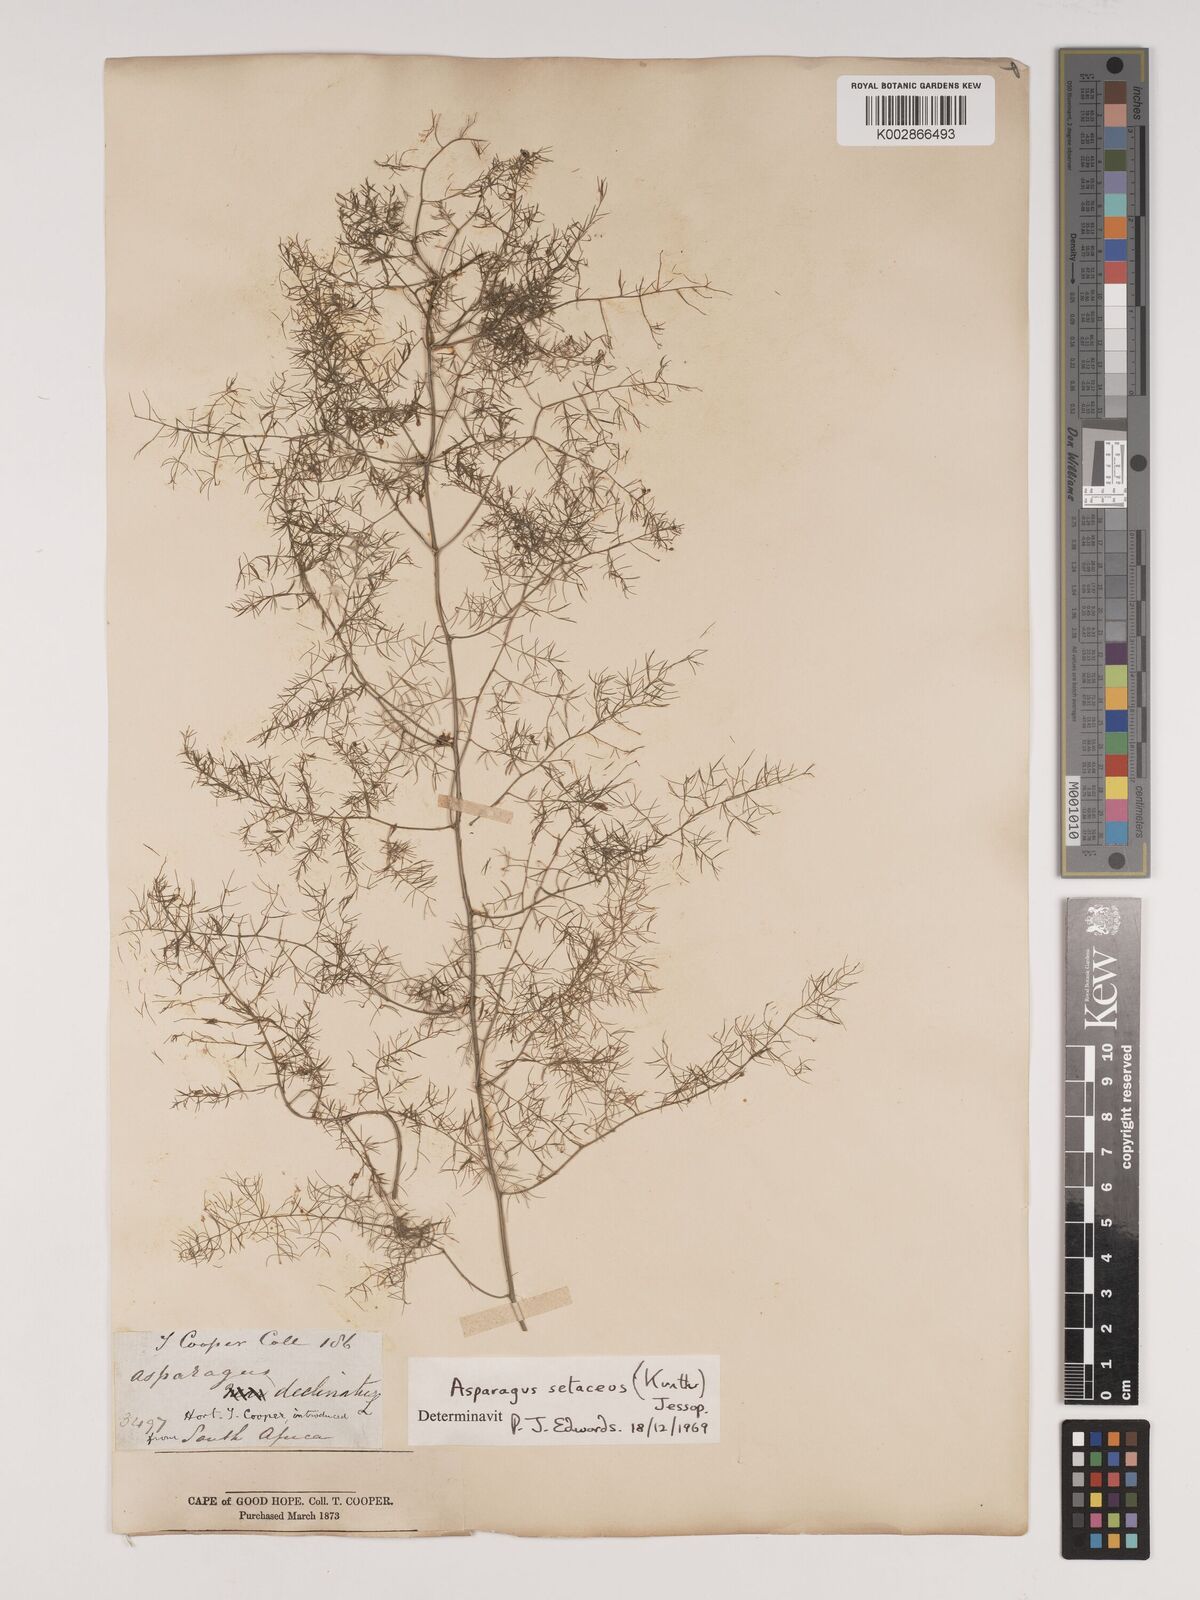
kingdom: Plantae
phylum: Tracheophyta
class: Liliopsida
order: Asparagales
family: Asparagaceae
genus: Asparagus
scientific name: Asparagus setaceus
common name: Common asparagus fern
